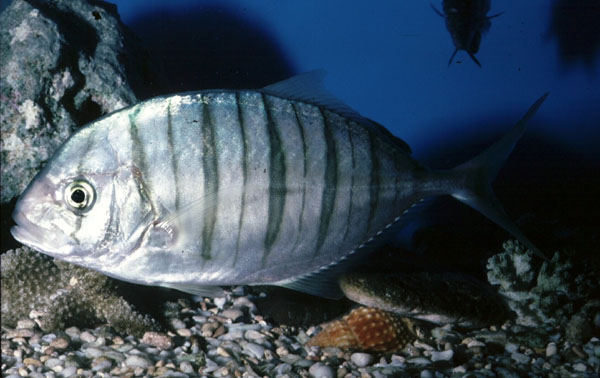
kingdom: Animalia
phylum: Chordata
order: Perciformes
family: Carangidae
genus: Gnathanodon
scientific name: Gnathanodon speciosus
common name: Golden toothless trevally
